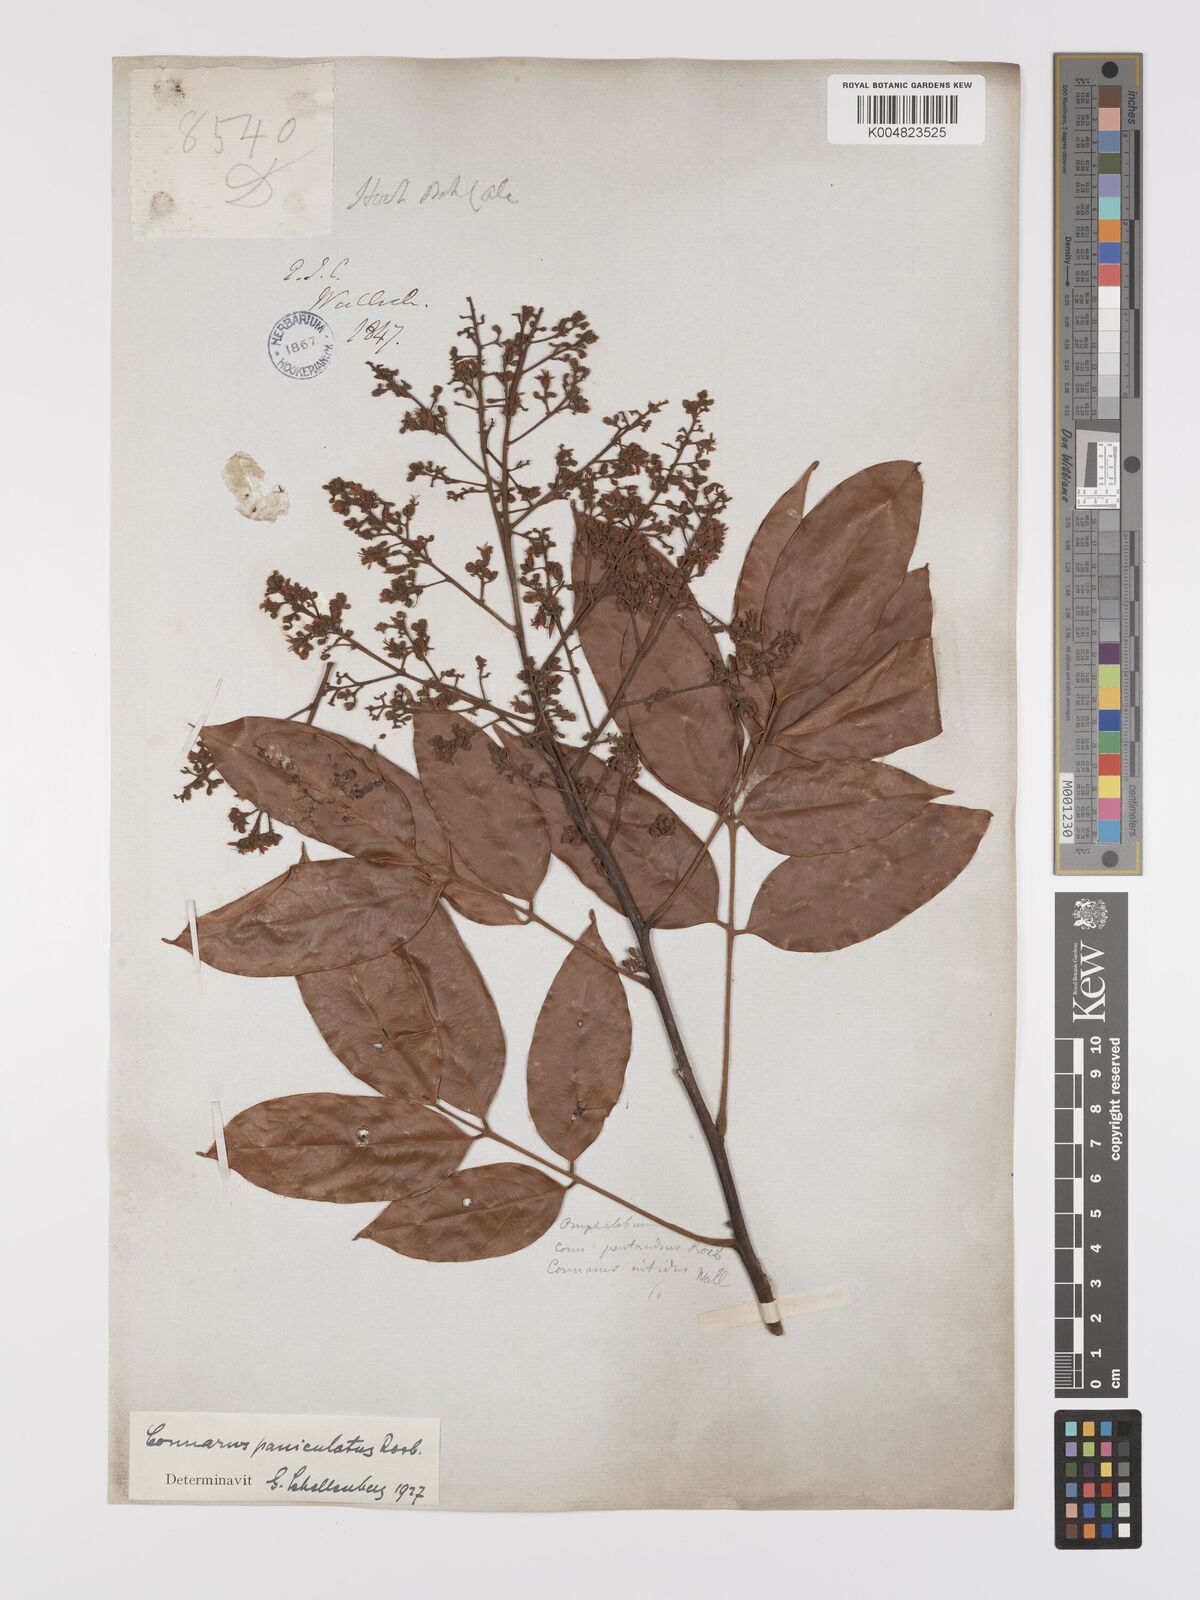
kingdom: Plantae
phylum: Tracheophyta
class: Magnoliopsida
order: Oxalidales
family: Connaraceae
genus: Connarus
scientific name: Connarus paniculatus
